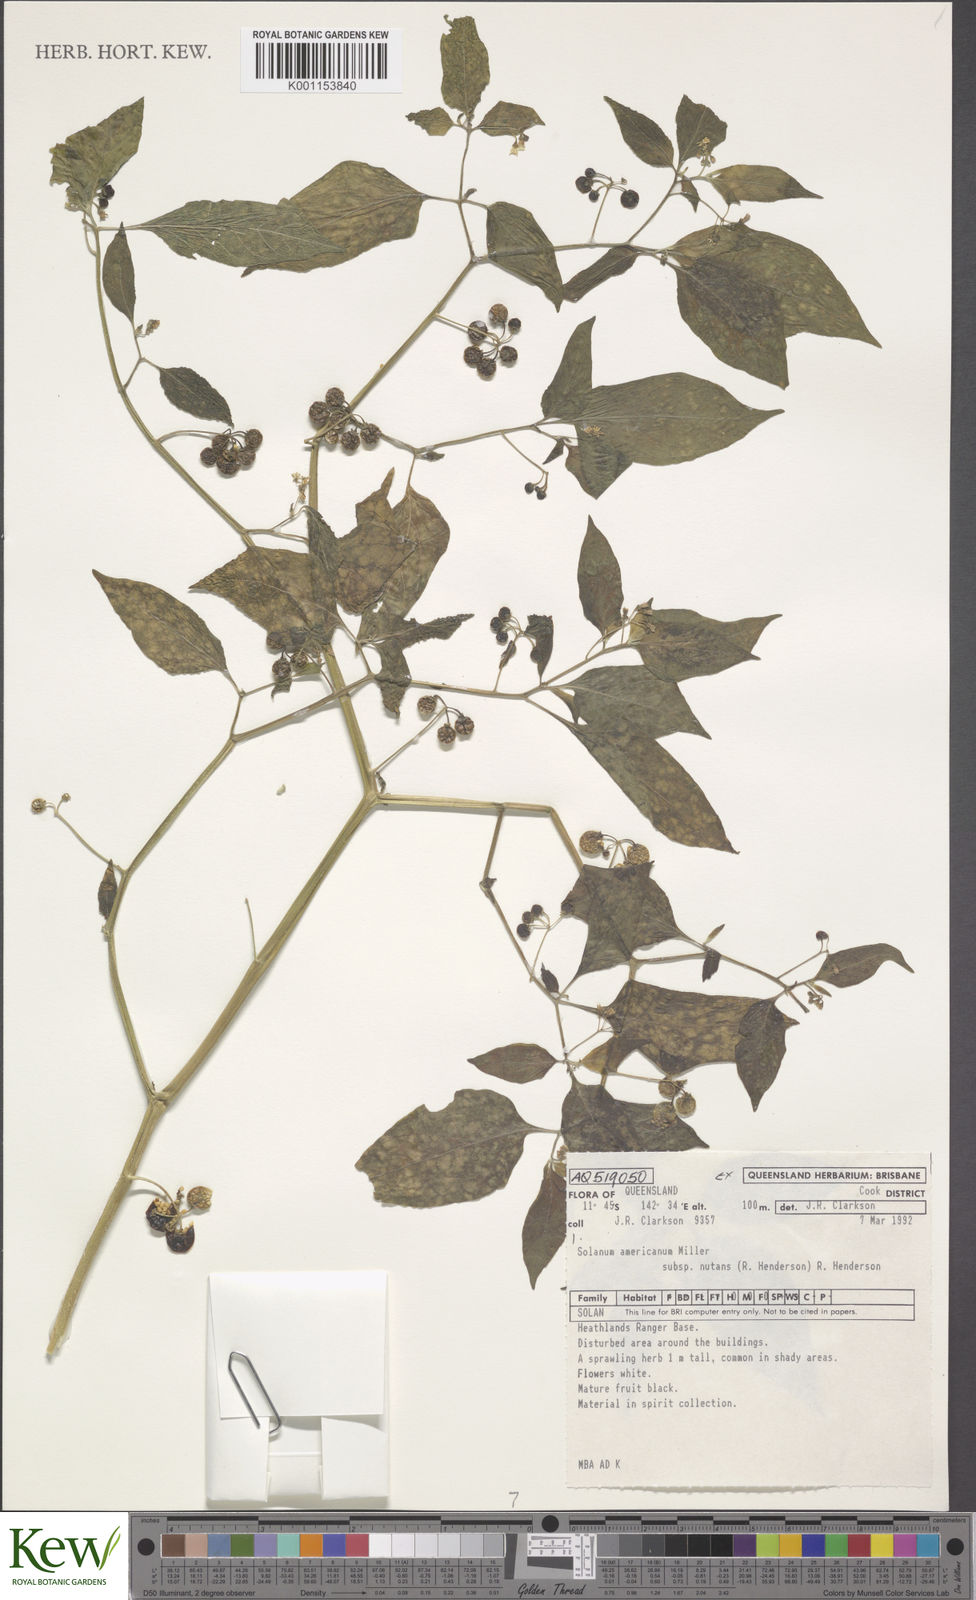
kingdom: Plantae
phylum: Tracheophyta
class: Magnoliopsida
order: Solanales
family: Solanaceae
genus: Solanum
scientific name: Solanum americanum
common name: American black nightshade
